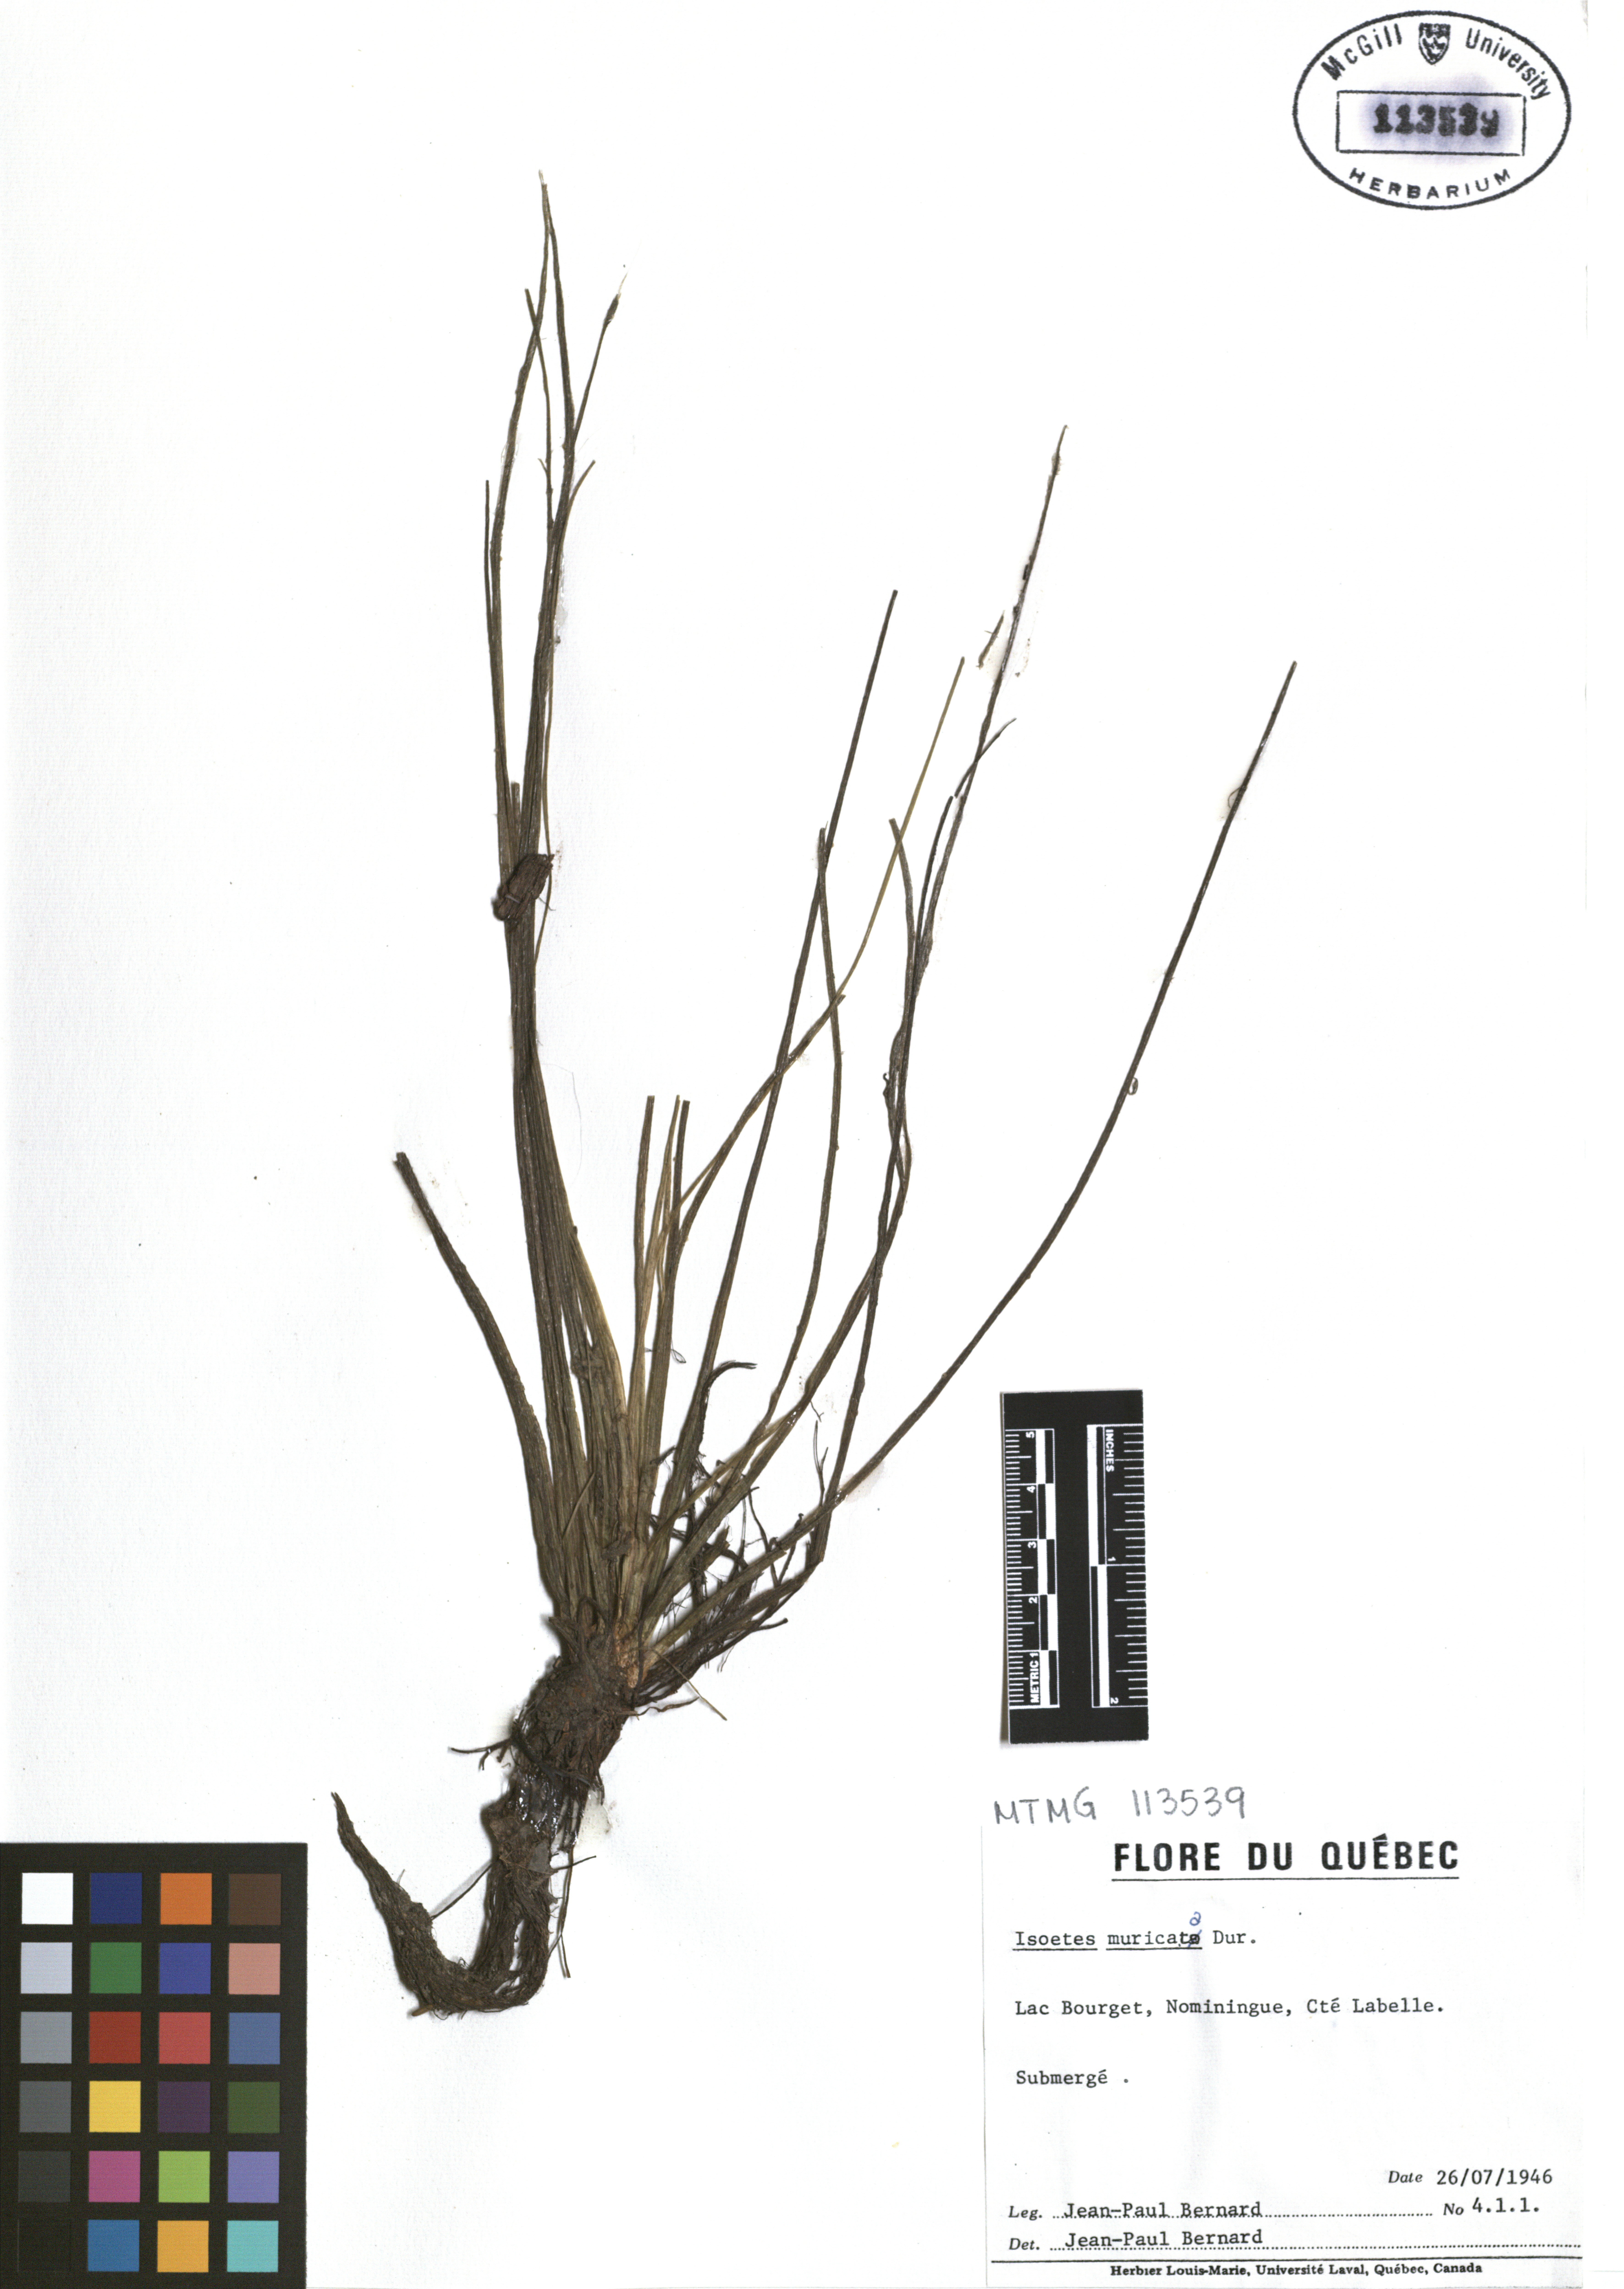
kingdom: Plantae
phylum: Tracheophyta
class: Lycopodiopsida
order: Isoetales
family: Isoetaceae
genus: Isoetes
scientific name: Isoetes echinospora
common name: Spring quillwort
